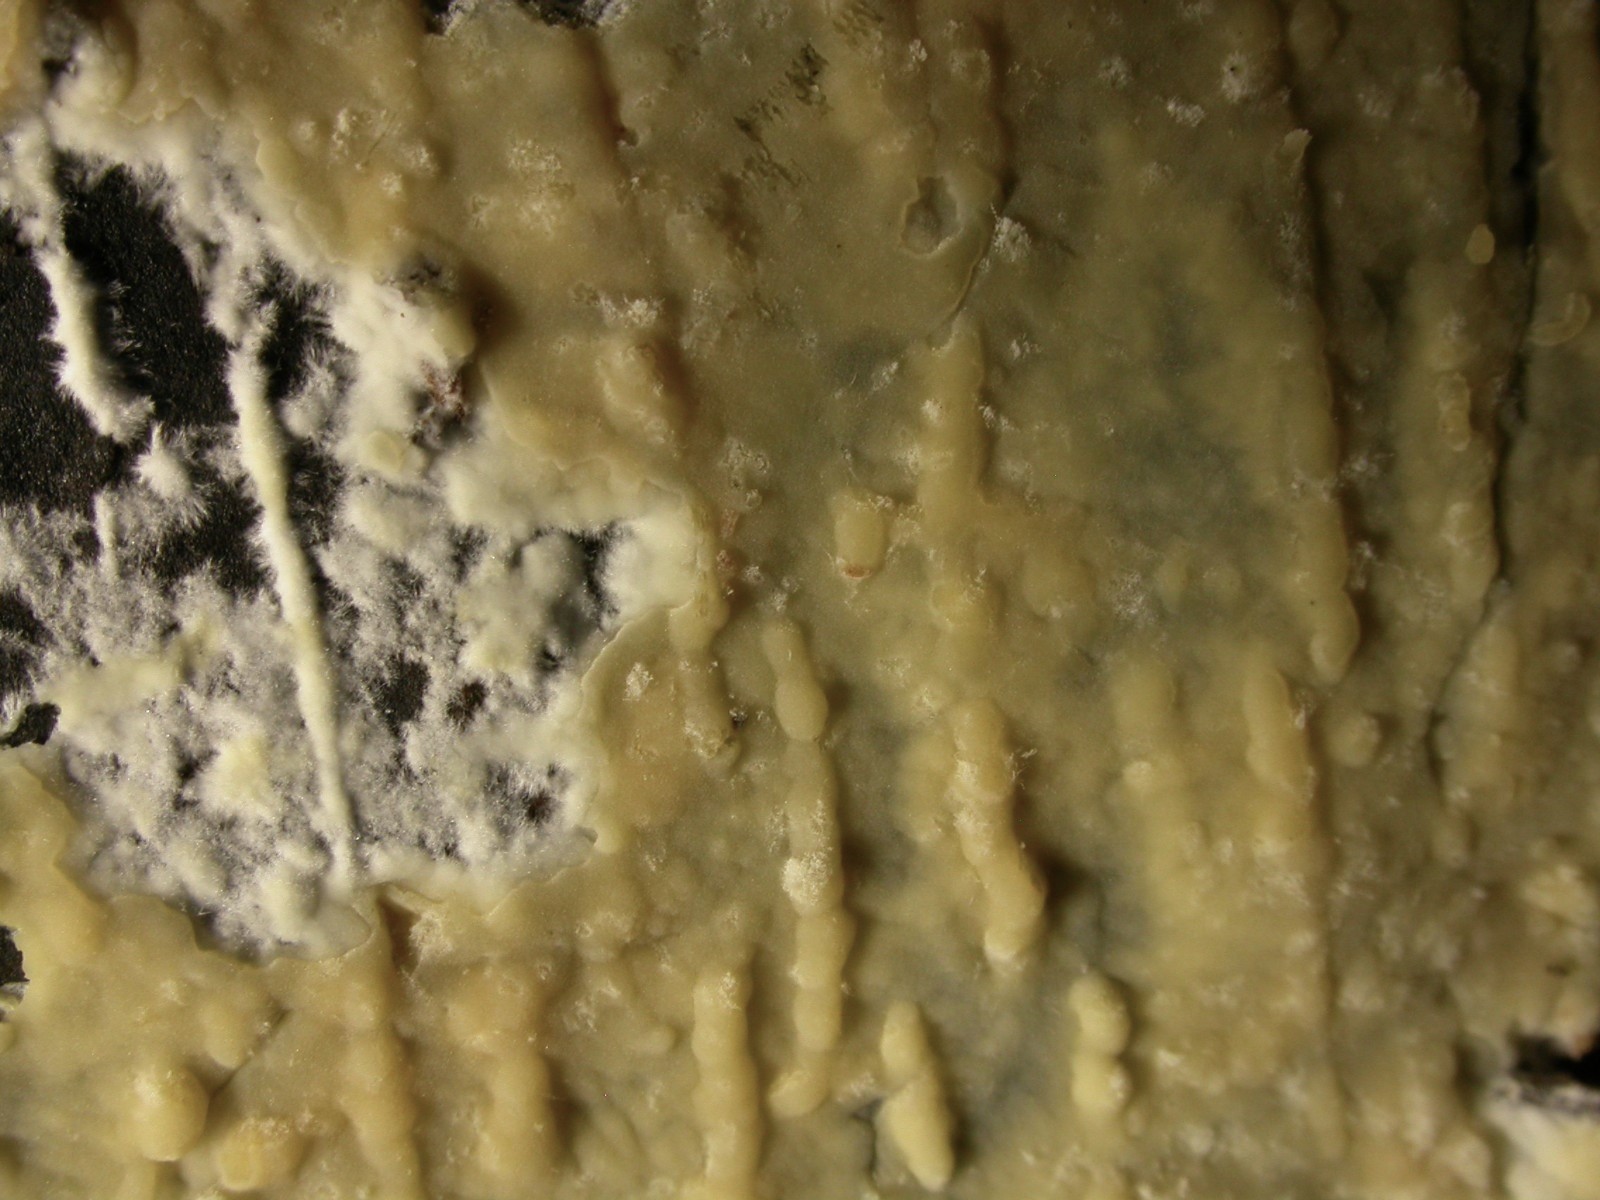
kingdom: Fungi
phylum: Basidiomycota
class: Agaricomycetes
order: Russulales
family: Peniophoraceae
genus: Gloiothele
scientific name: Gloiothele citrina
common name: citronskorpe
